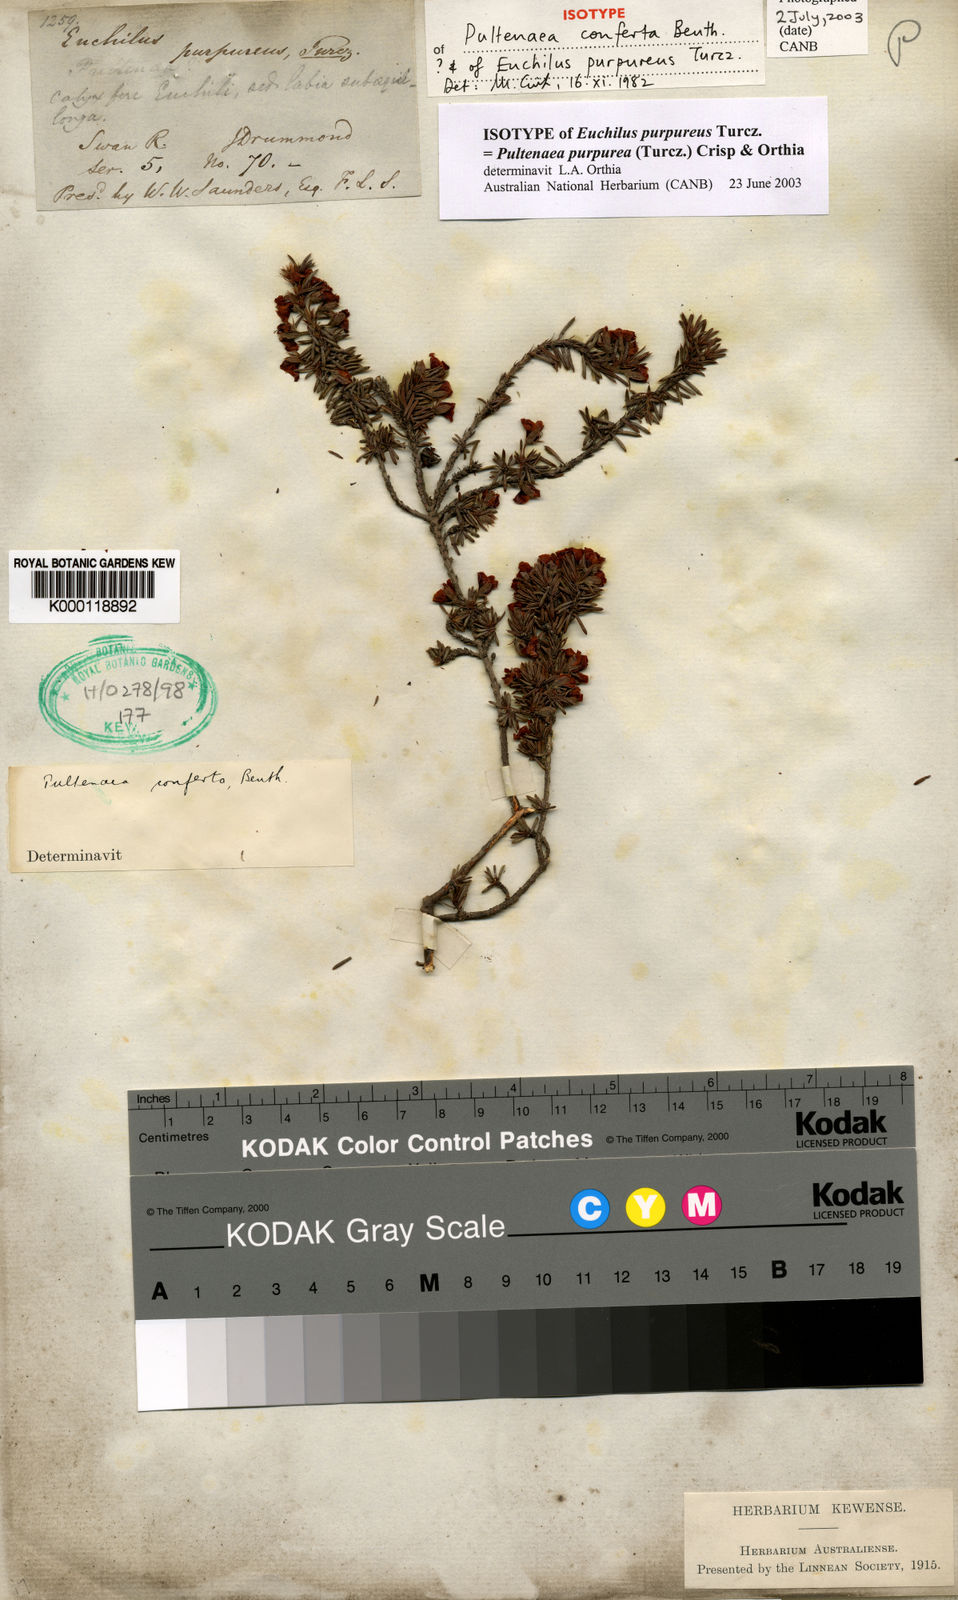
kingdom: Plantae
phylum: Tracheophyta
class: Magnoliopsida
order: Fabales
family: Fabaceae
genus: Pultenaea
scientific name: Pultenaea purpurea
